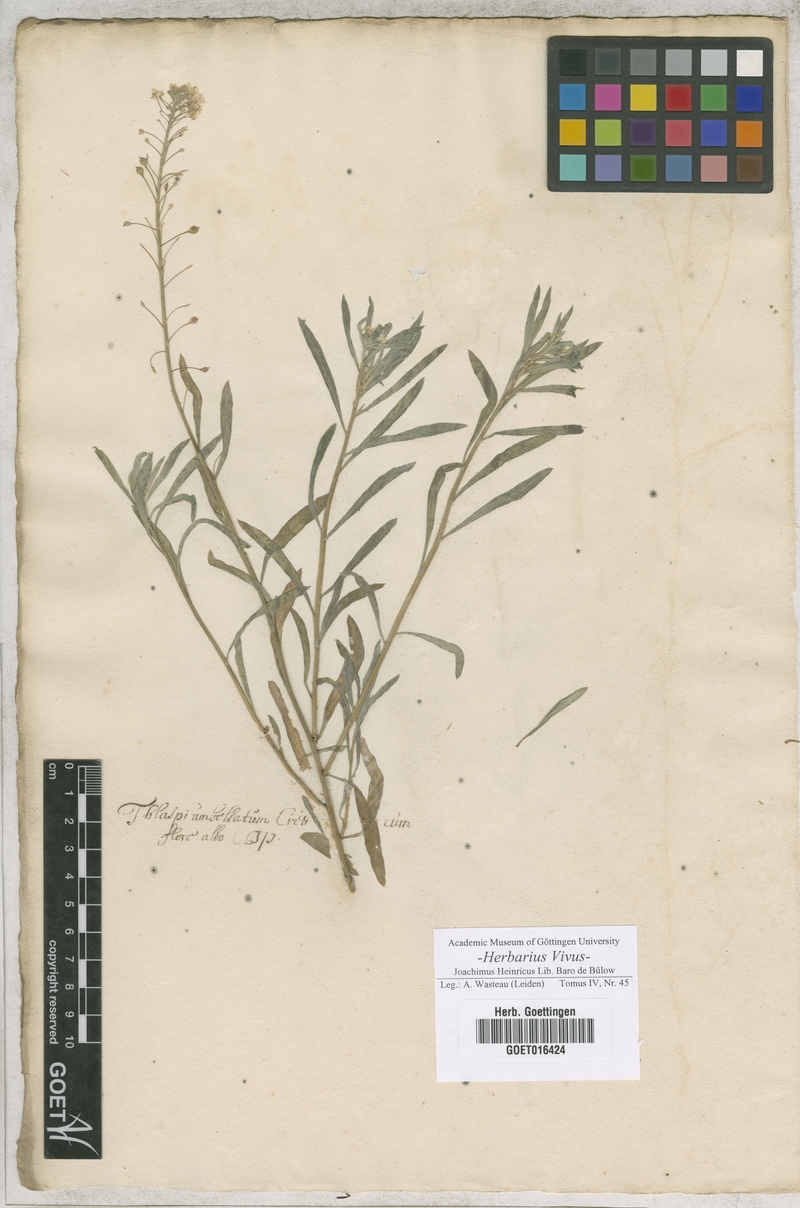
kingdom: Plantae
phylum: Tracheophyta
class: Magnoliopsida
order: Brassicales
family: Brassicaceae
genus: Iberis
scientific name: Iberis odorata
